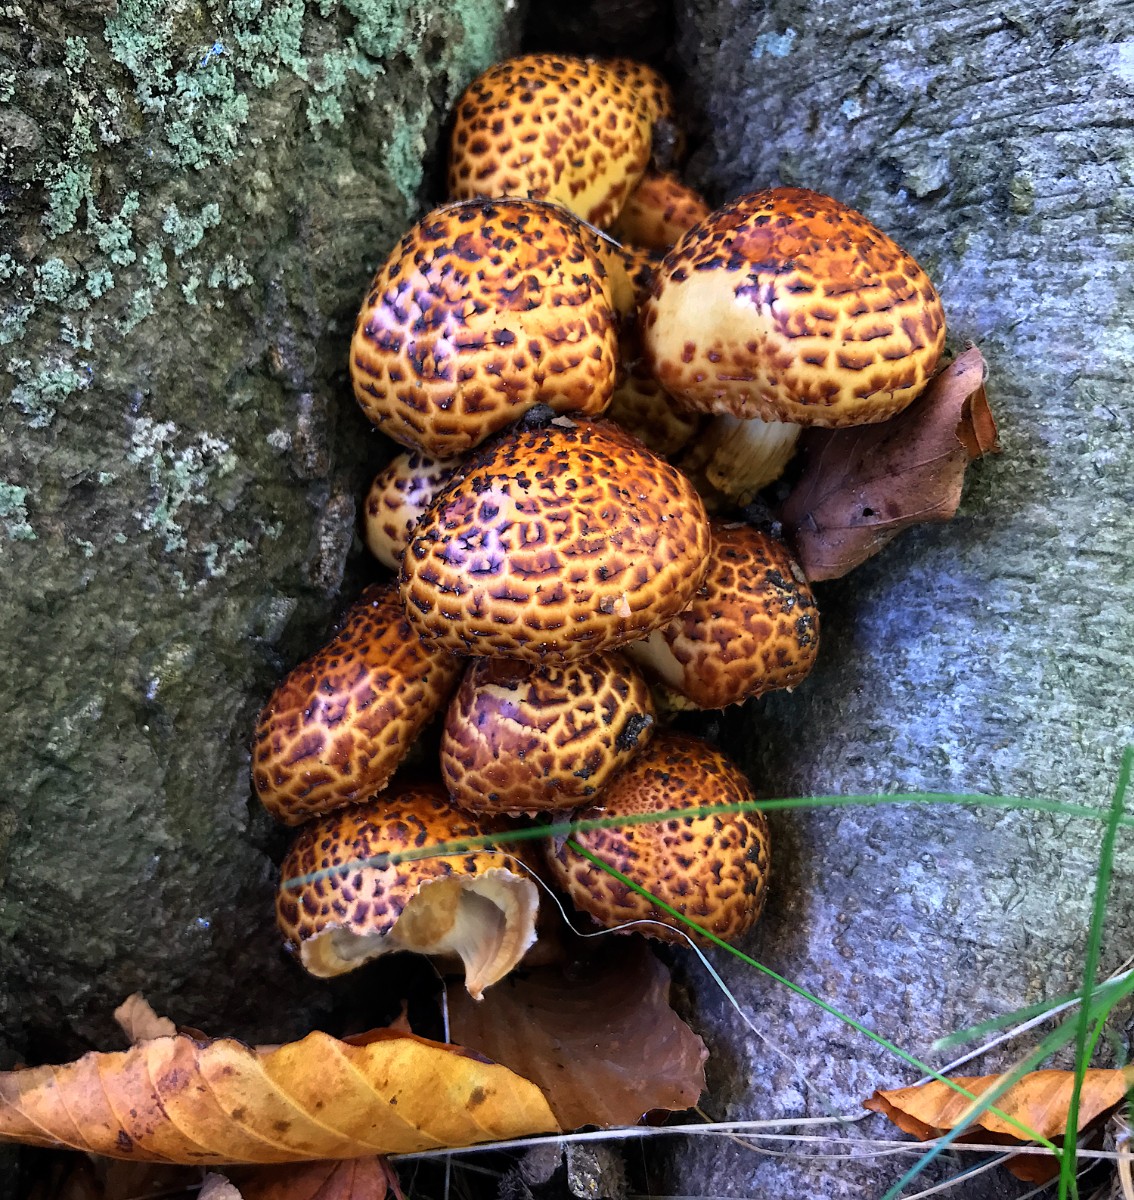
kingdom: Fungi
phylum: Basidiomycota
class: Agaricomycetes
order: Agaricales
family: Strophariaceae
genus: Pholiota
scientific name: Pholiota jahnii
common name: slimet skælhat
